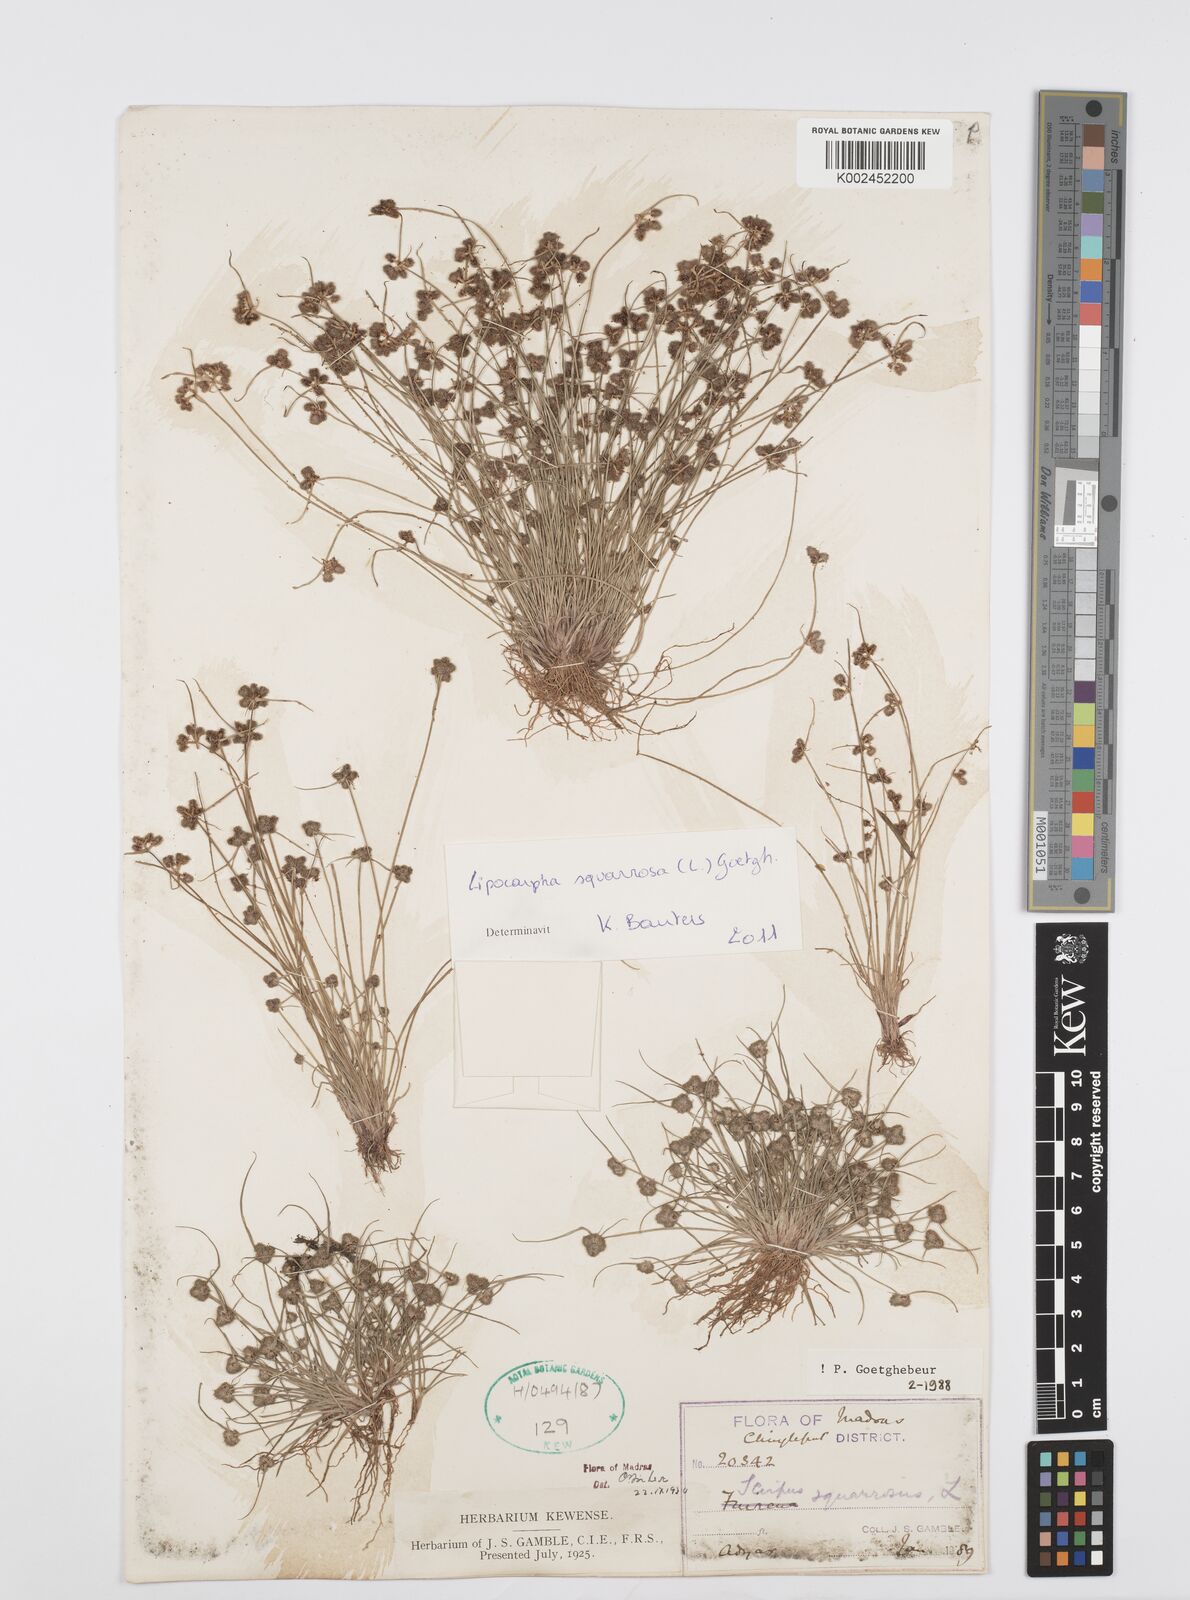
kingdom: Plantae
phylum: Tracheophyta
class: Liliopsida
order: Poales
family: Cyperaceae
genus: Cyperus
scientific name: Cyperus squarrosus
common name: Awned cyperus
